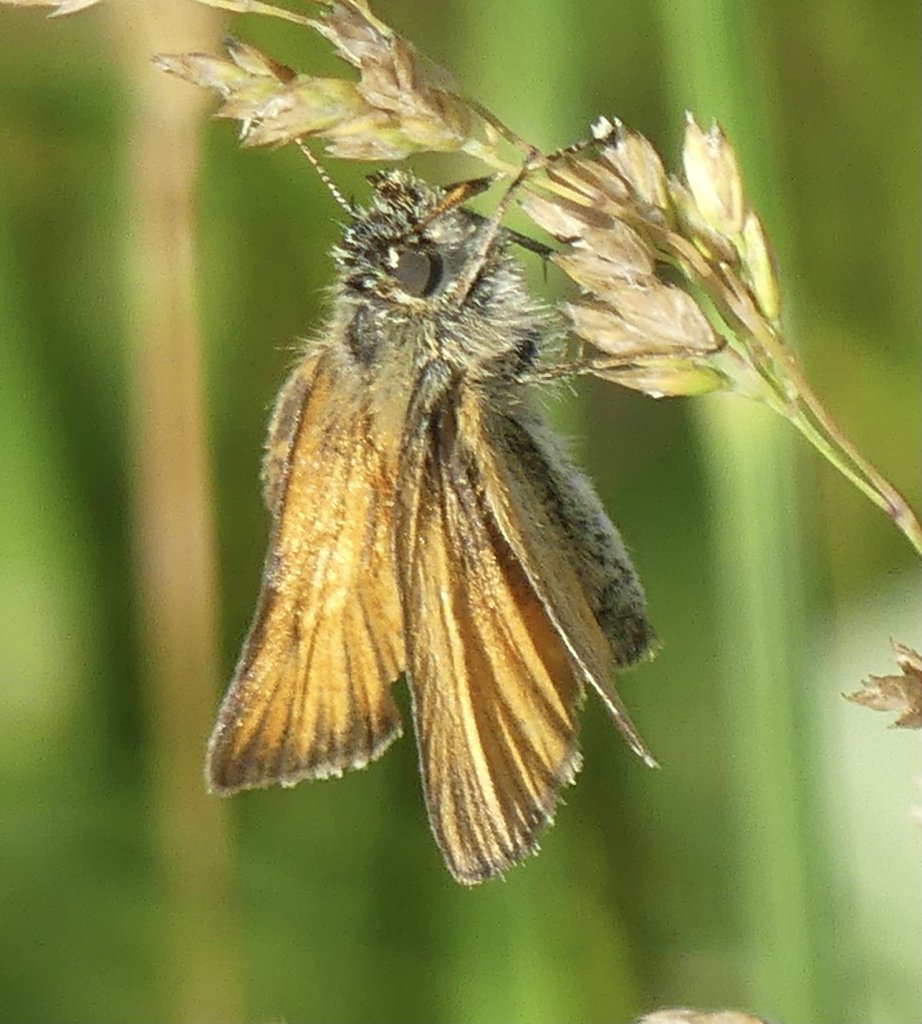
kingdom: Animalia
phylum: Arthropoda
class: Insecta
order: Lepidoptera
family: Hesperiidae
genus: Thymelicus
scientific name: Thymelicus lineola
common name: European Skipper
